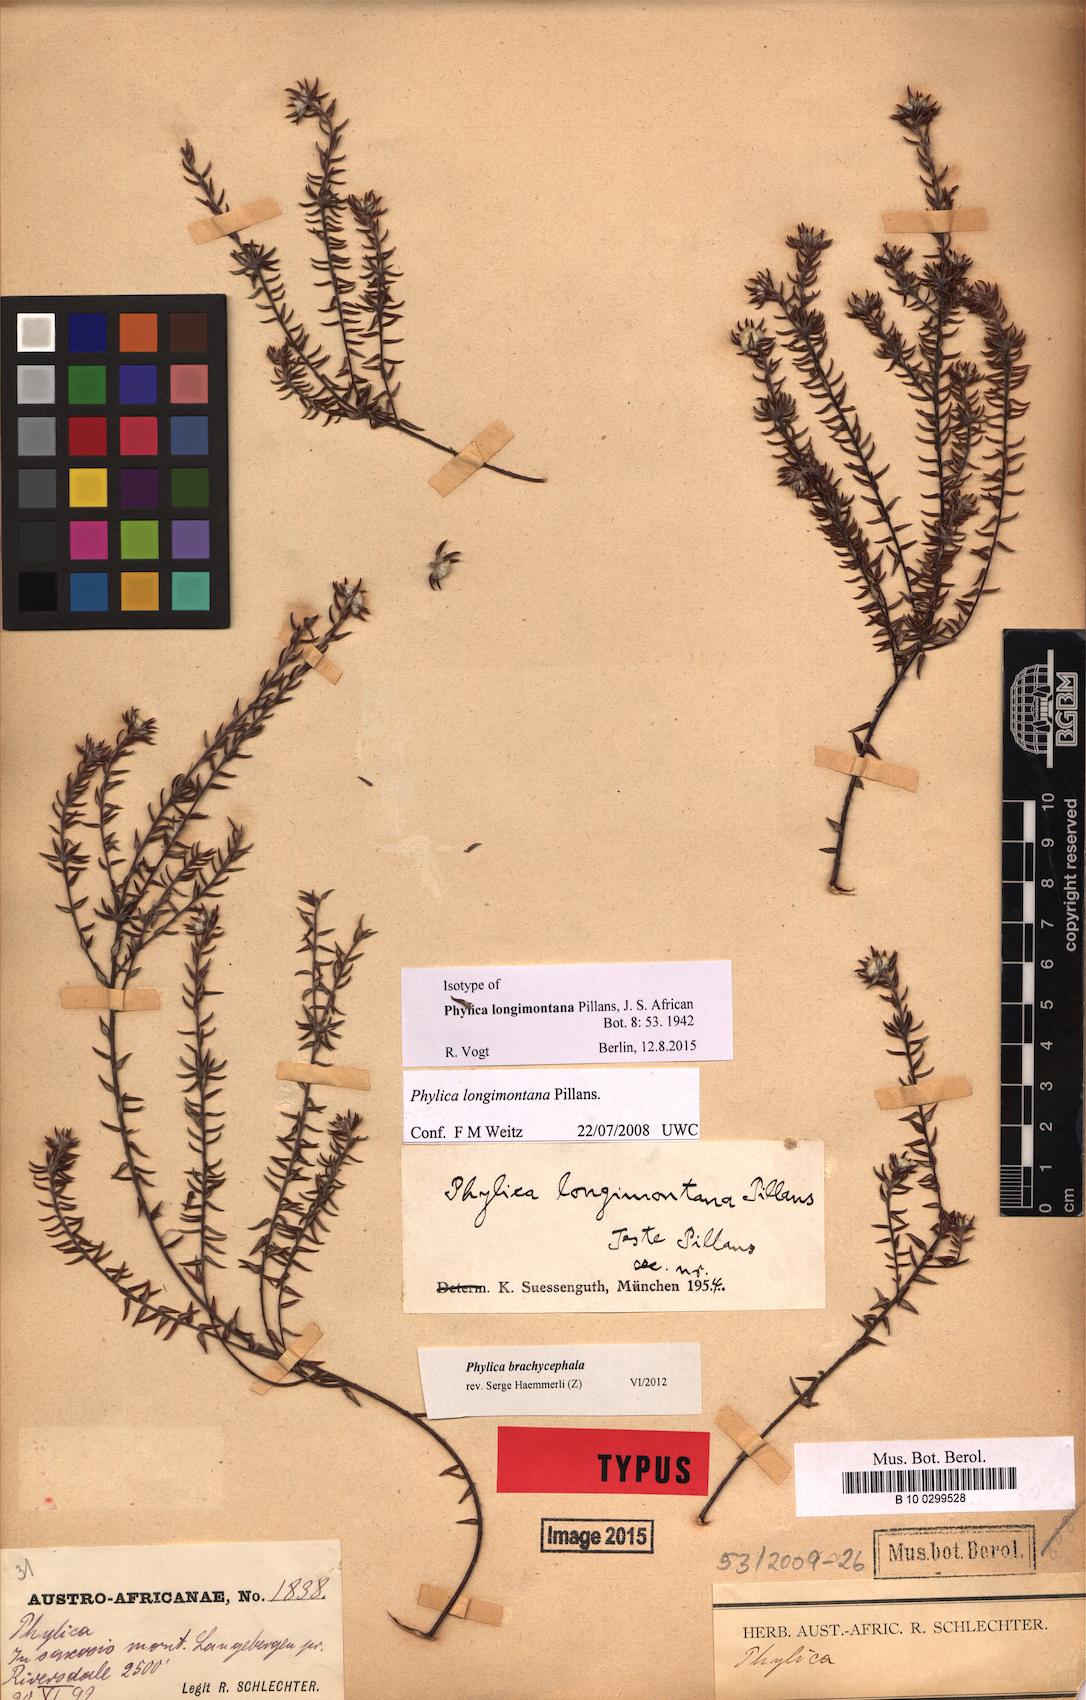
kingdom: Plantae
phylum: Tracheophyta
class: Magnoliopsida
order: Rosales
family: Rhamnaceae
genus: Phylica
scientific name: Phylica longimontana
